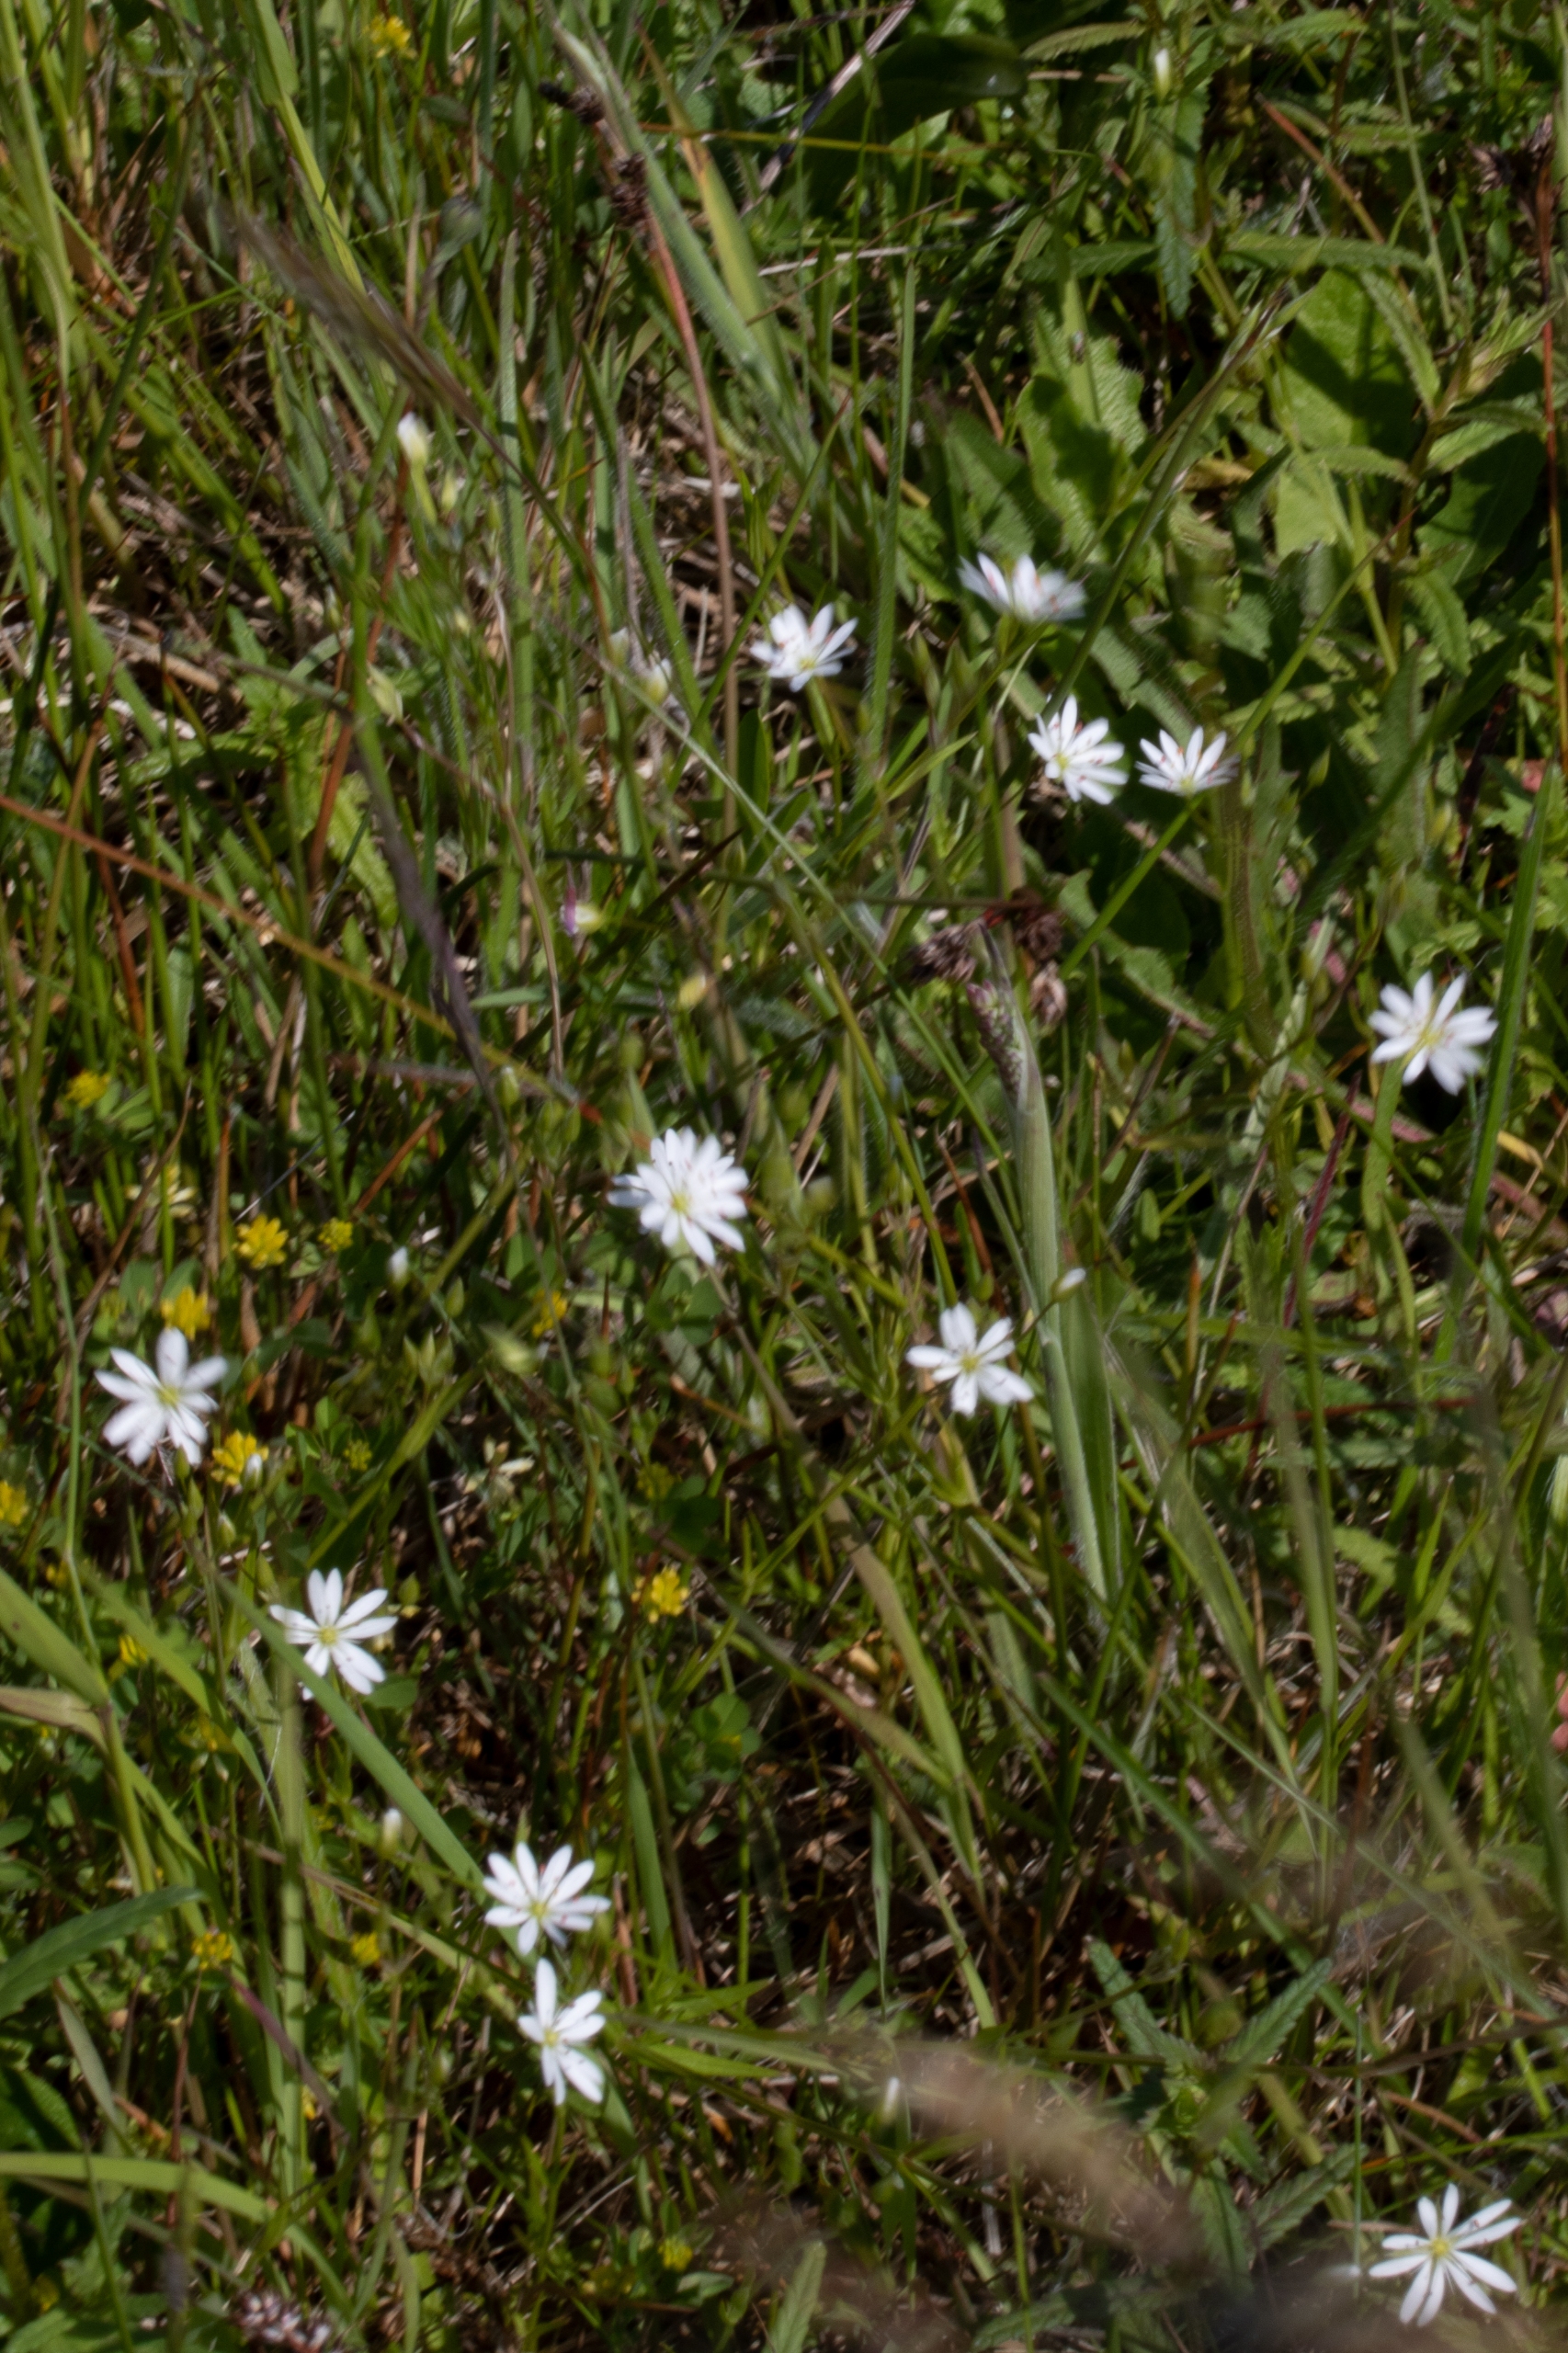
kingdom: Plantae
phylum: Tracheophyta
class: Magnoliopsida
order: Caryophyllales
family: Caryophyllaceae
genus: Stellaria
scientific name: Stellaria
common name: Fladstjerneslægten
